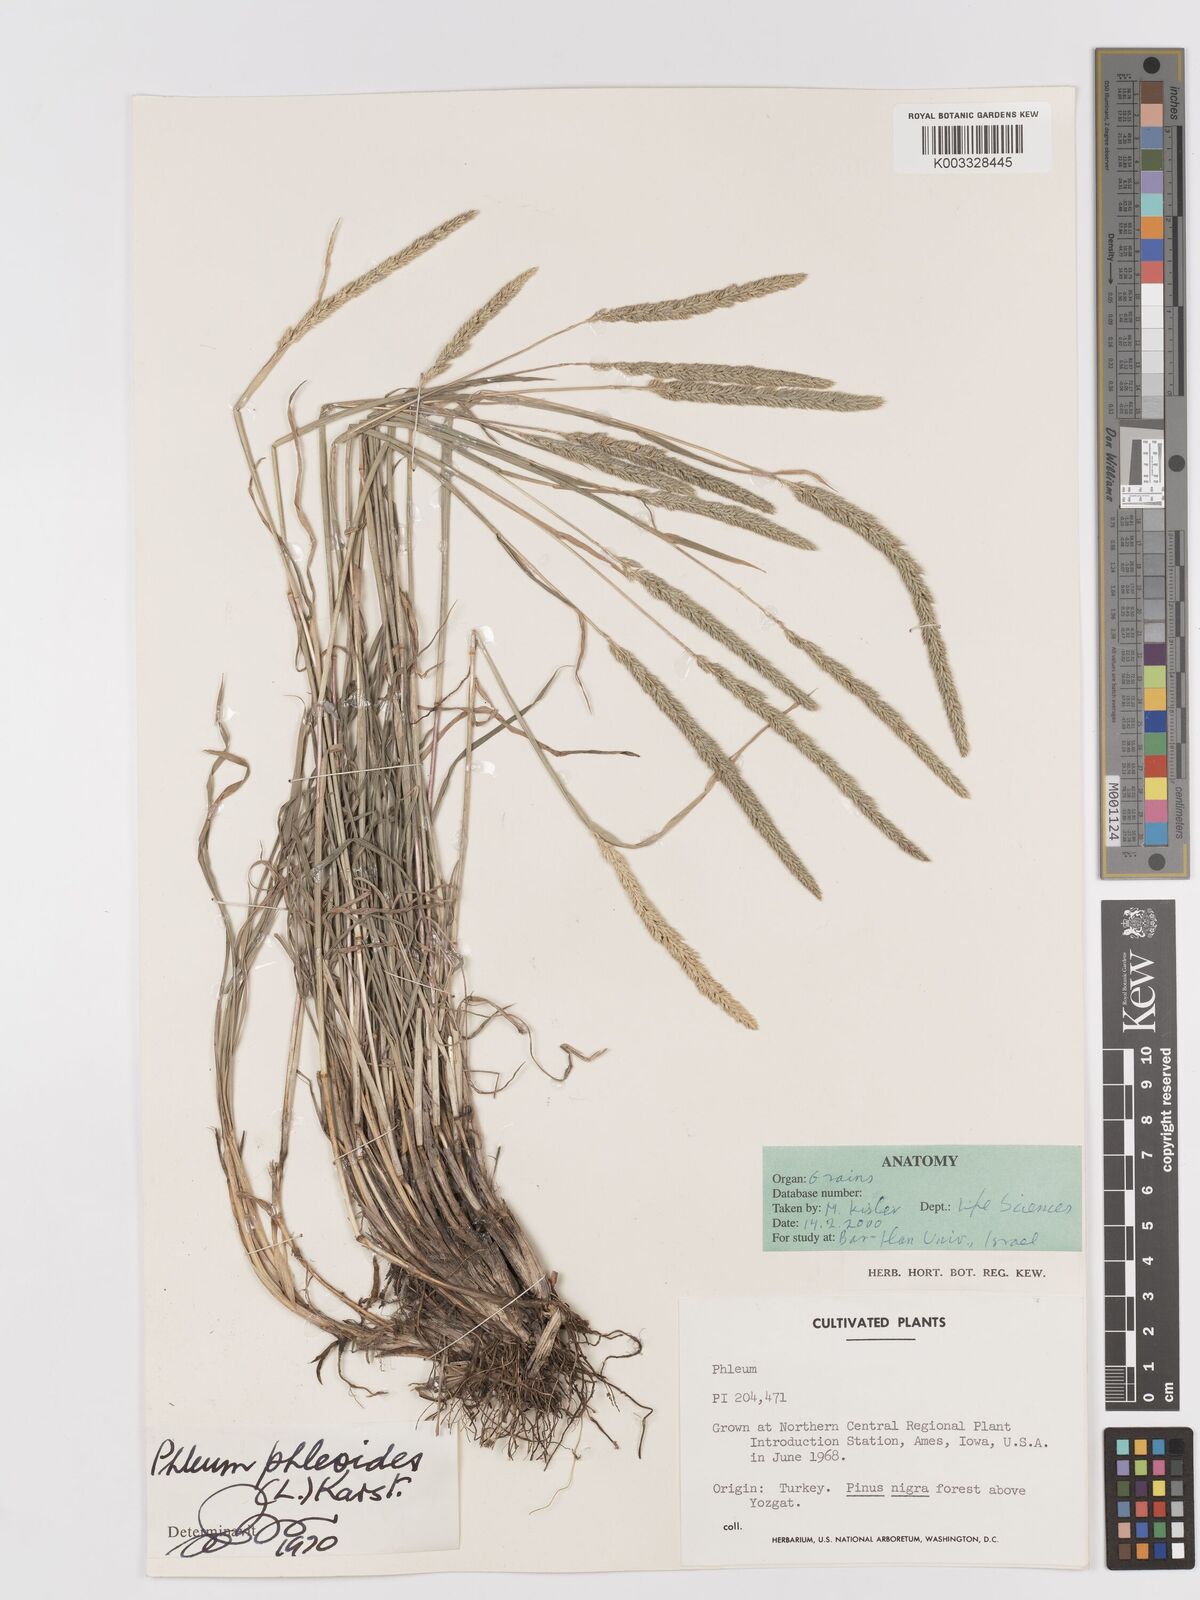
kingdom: Plantae
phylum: Tracheophyta
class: Liliopsida
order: Poales
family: Poaceae
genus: Phleum
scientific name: Phleum phleoides
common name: Purple-stem cat's-tail
